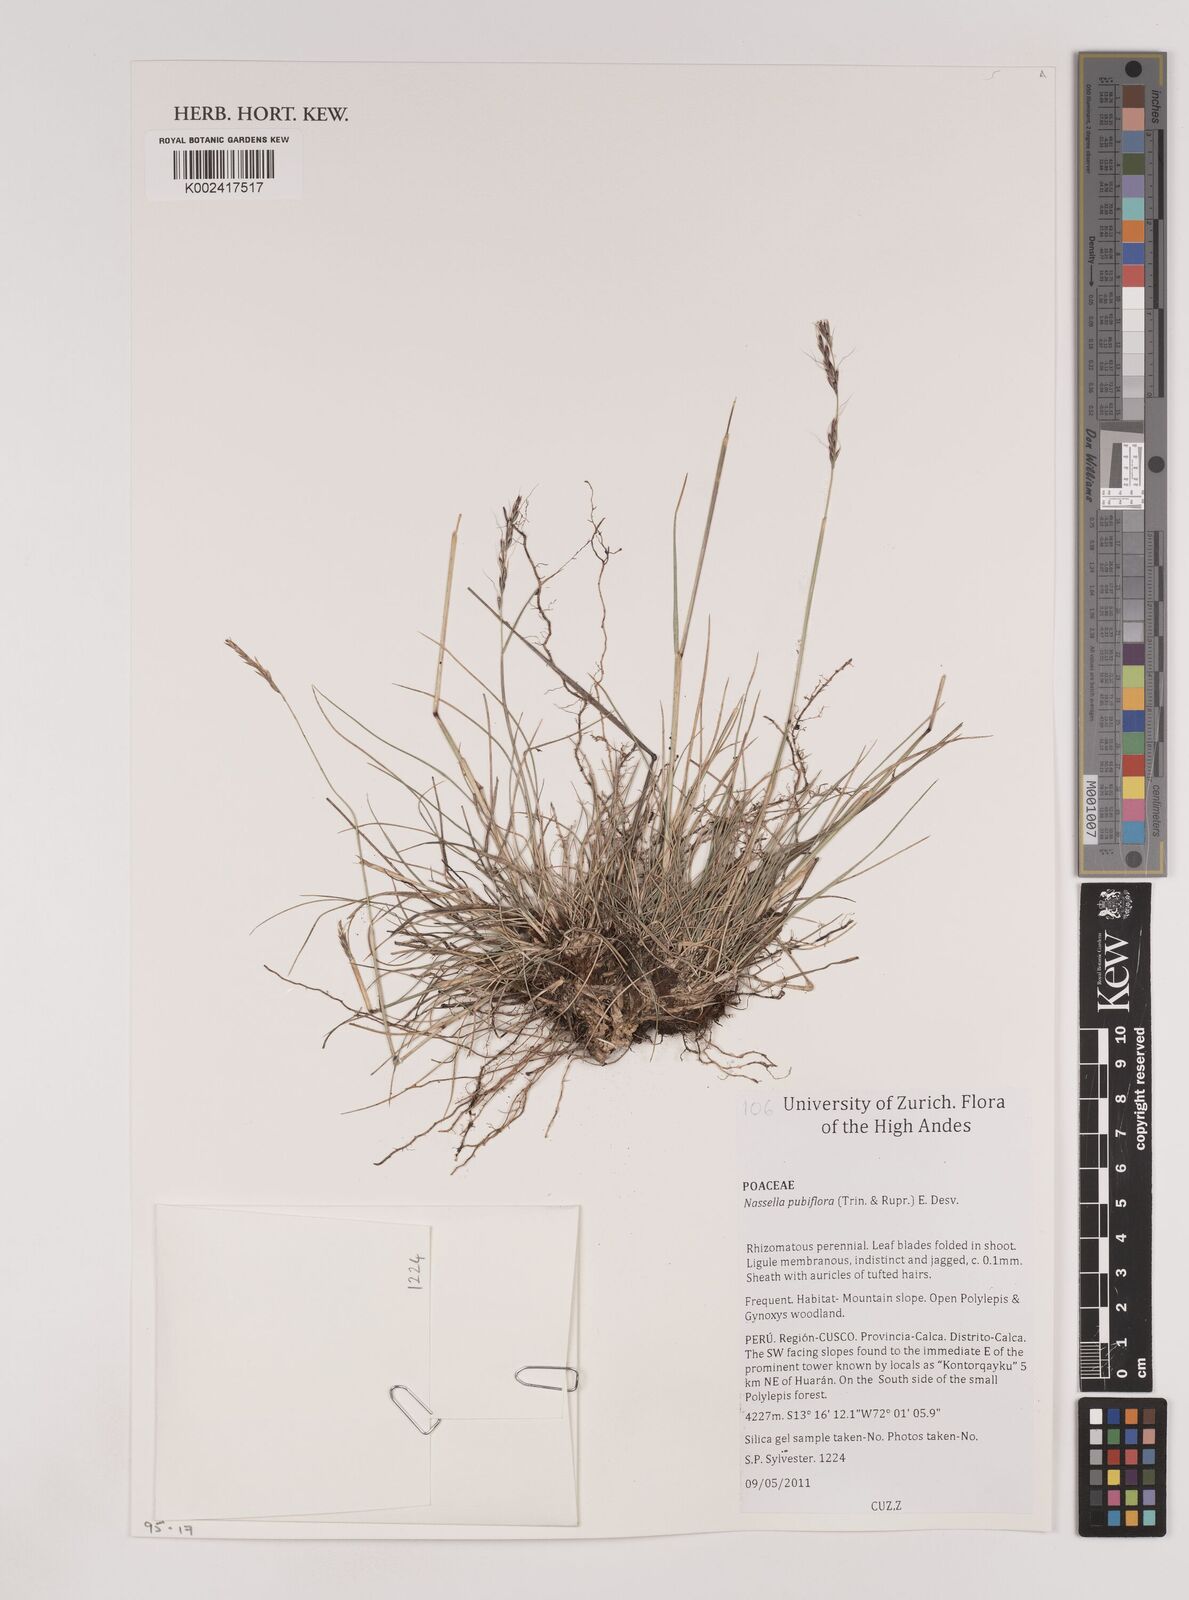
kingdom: Plantae
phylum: Tracheophyta
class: Liliopsida
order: Poales
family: Poaceae
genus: Nassella
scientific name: Nassella pubiflora
